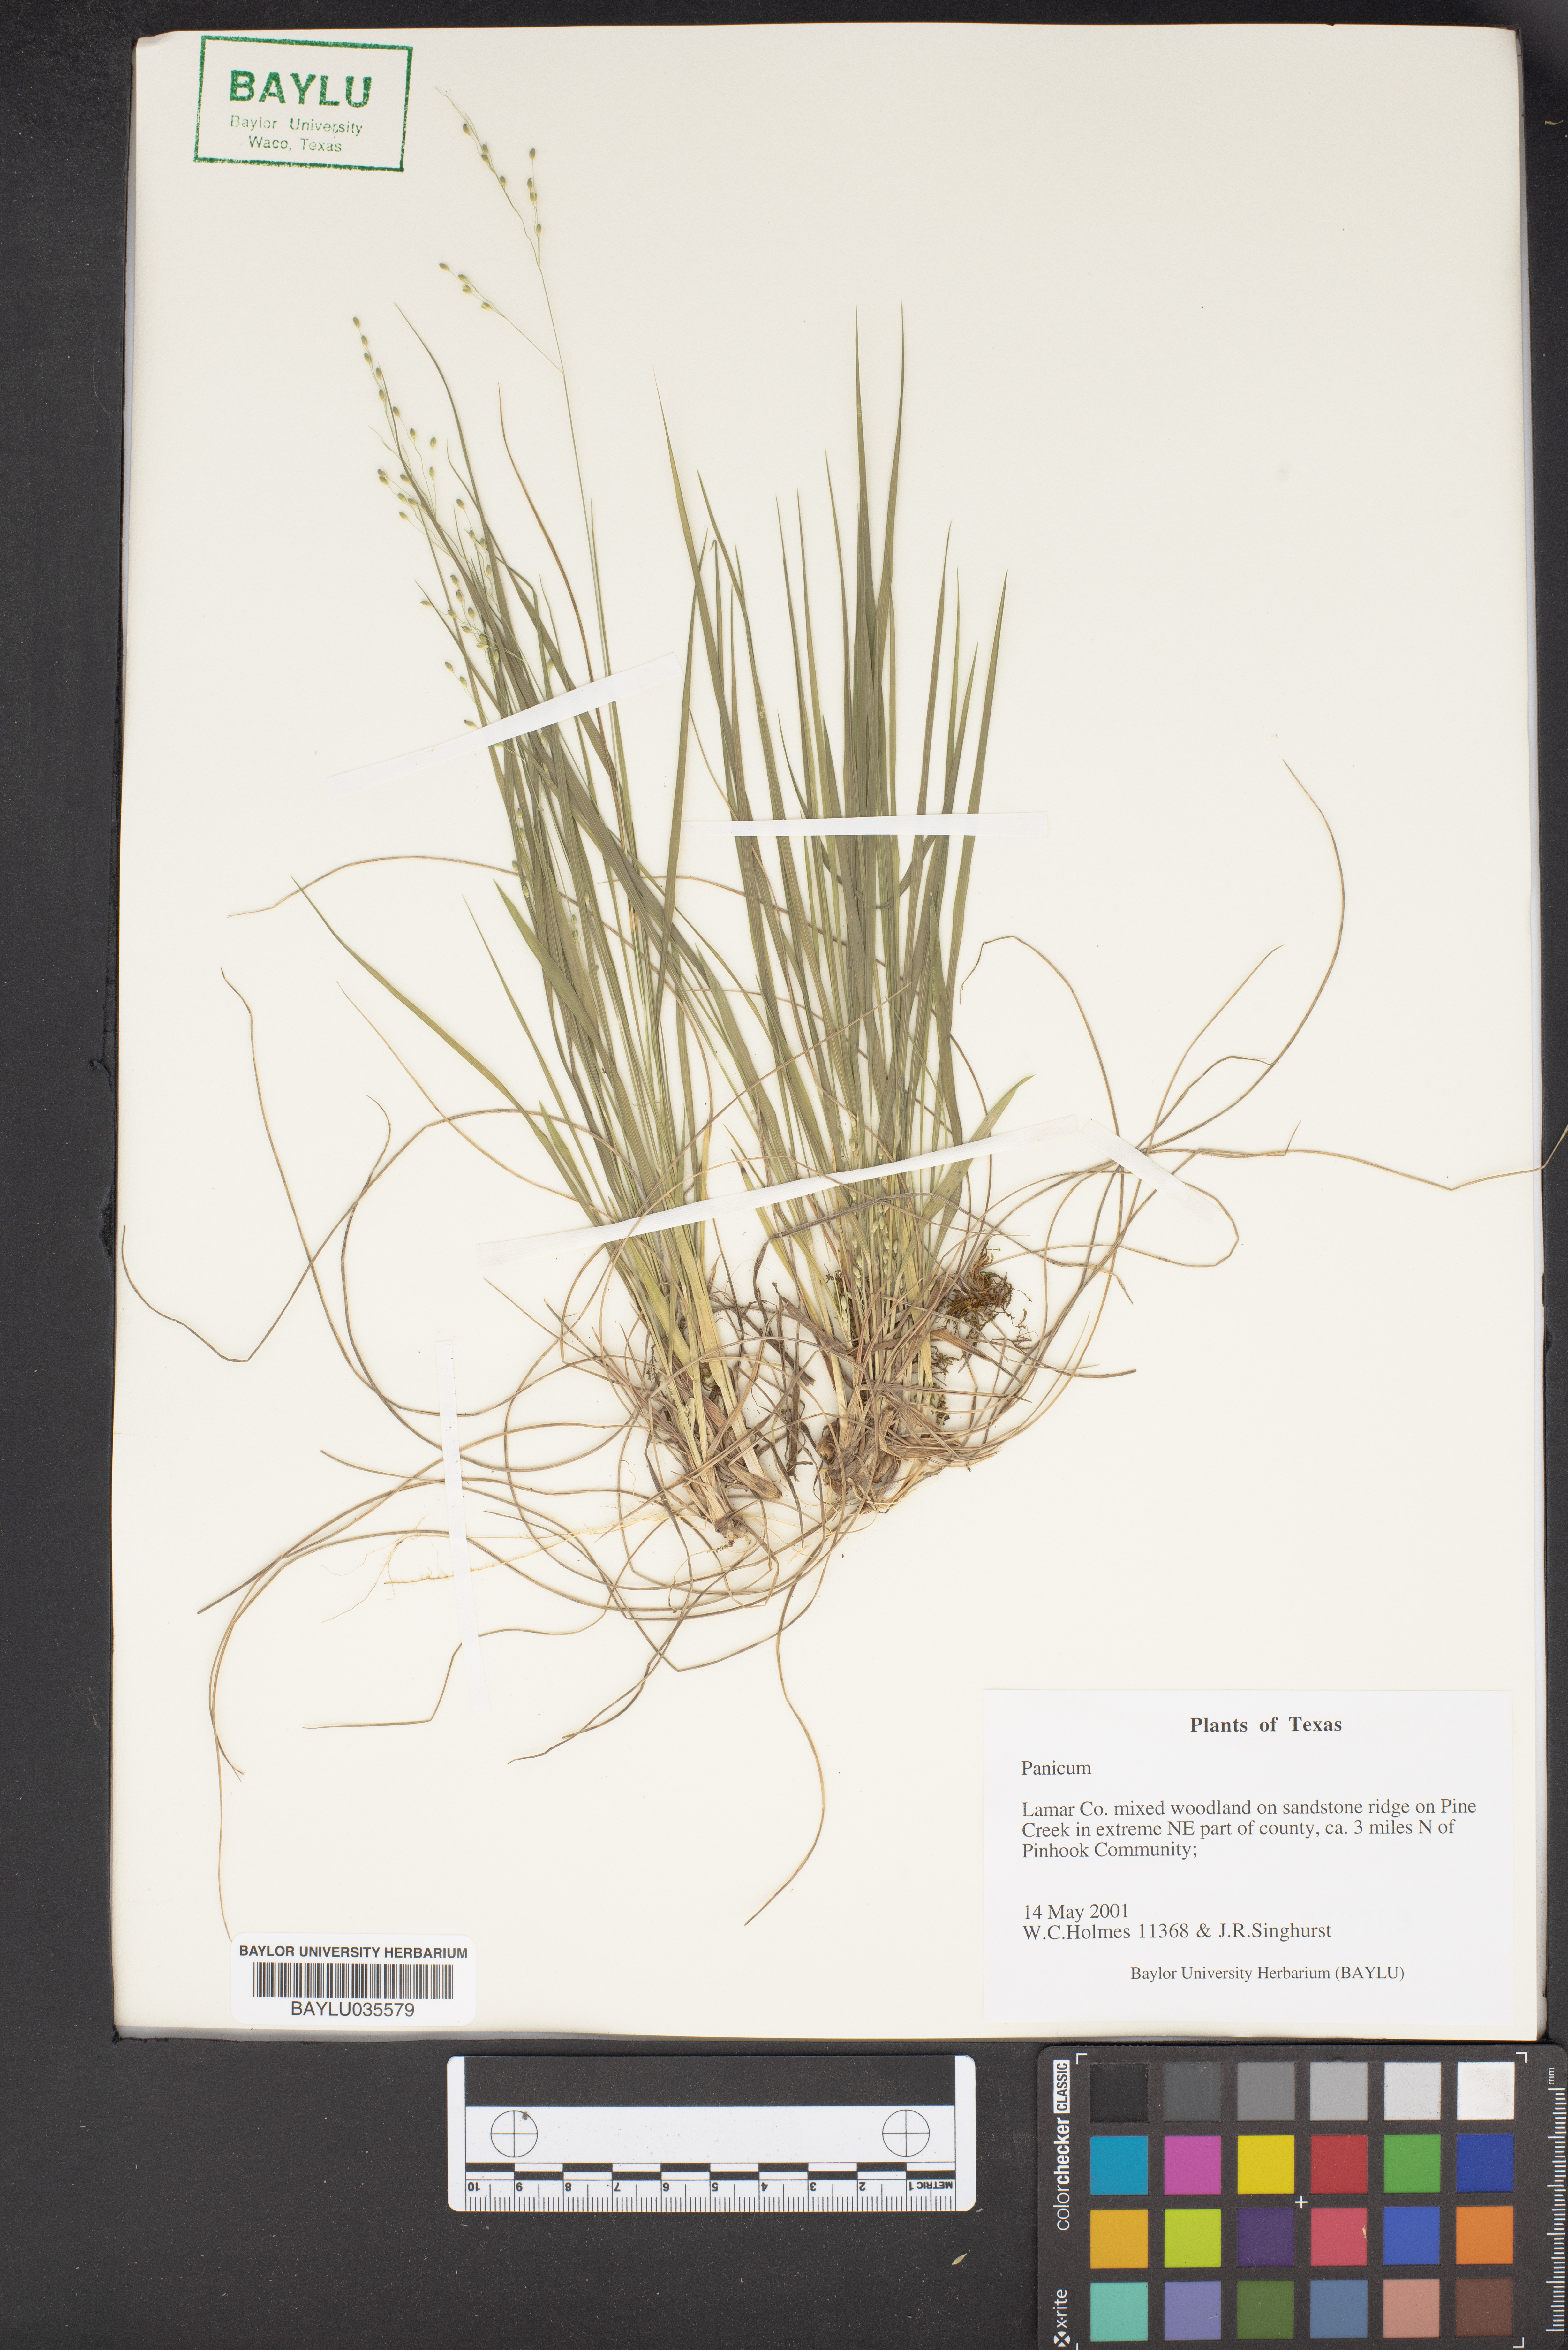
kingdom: Plantae
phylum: Tracheophyta
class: Liliopsida
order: Poales
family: Poaceae
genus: Panicum
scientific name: Panicum
